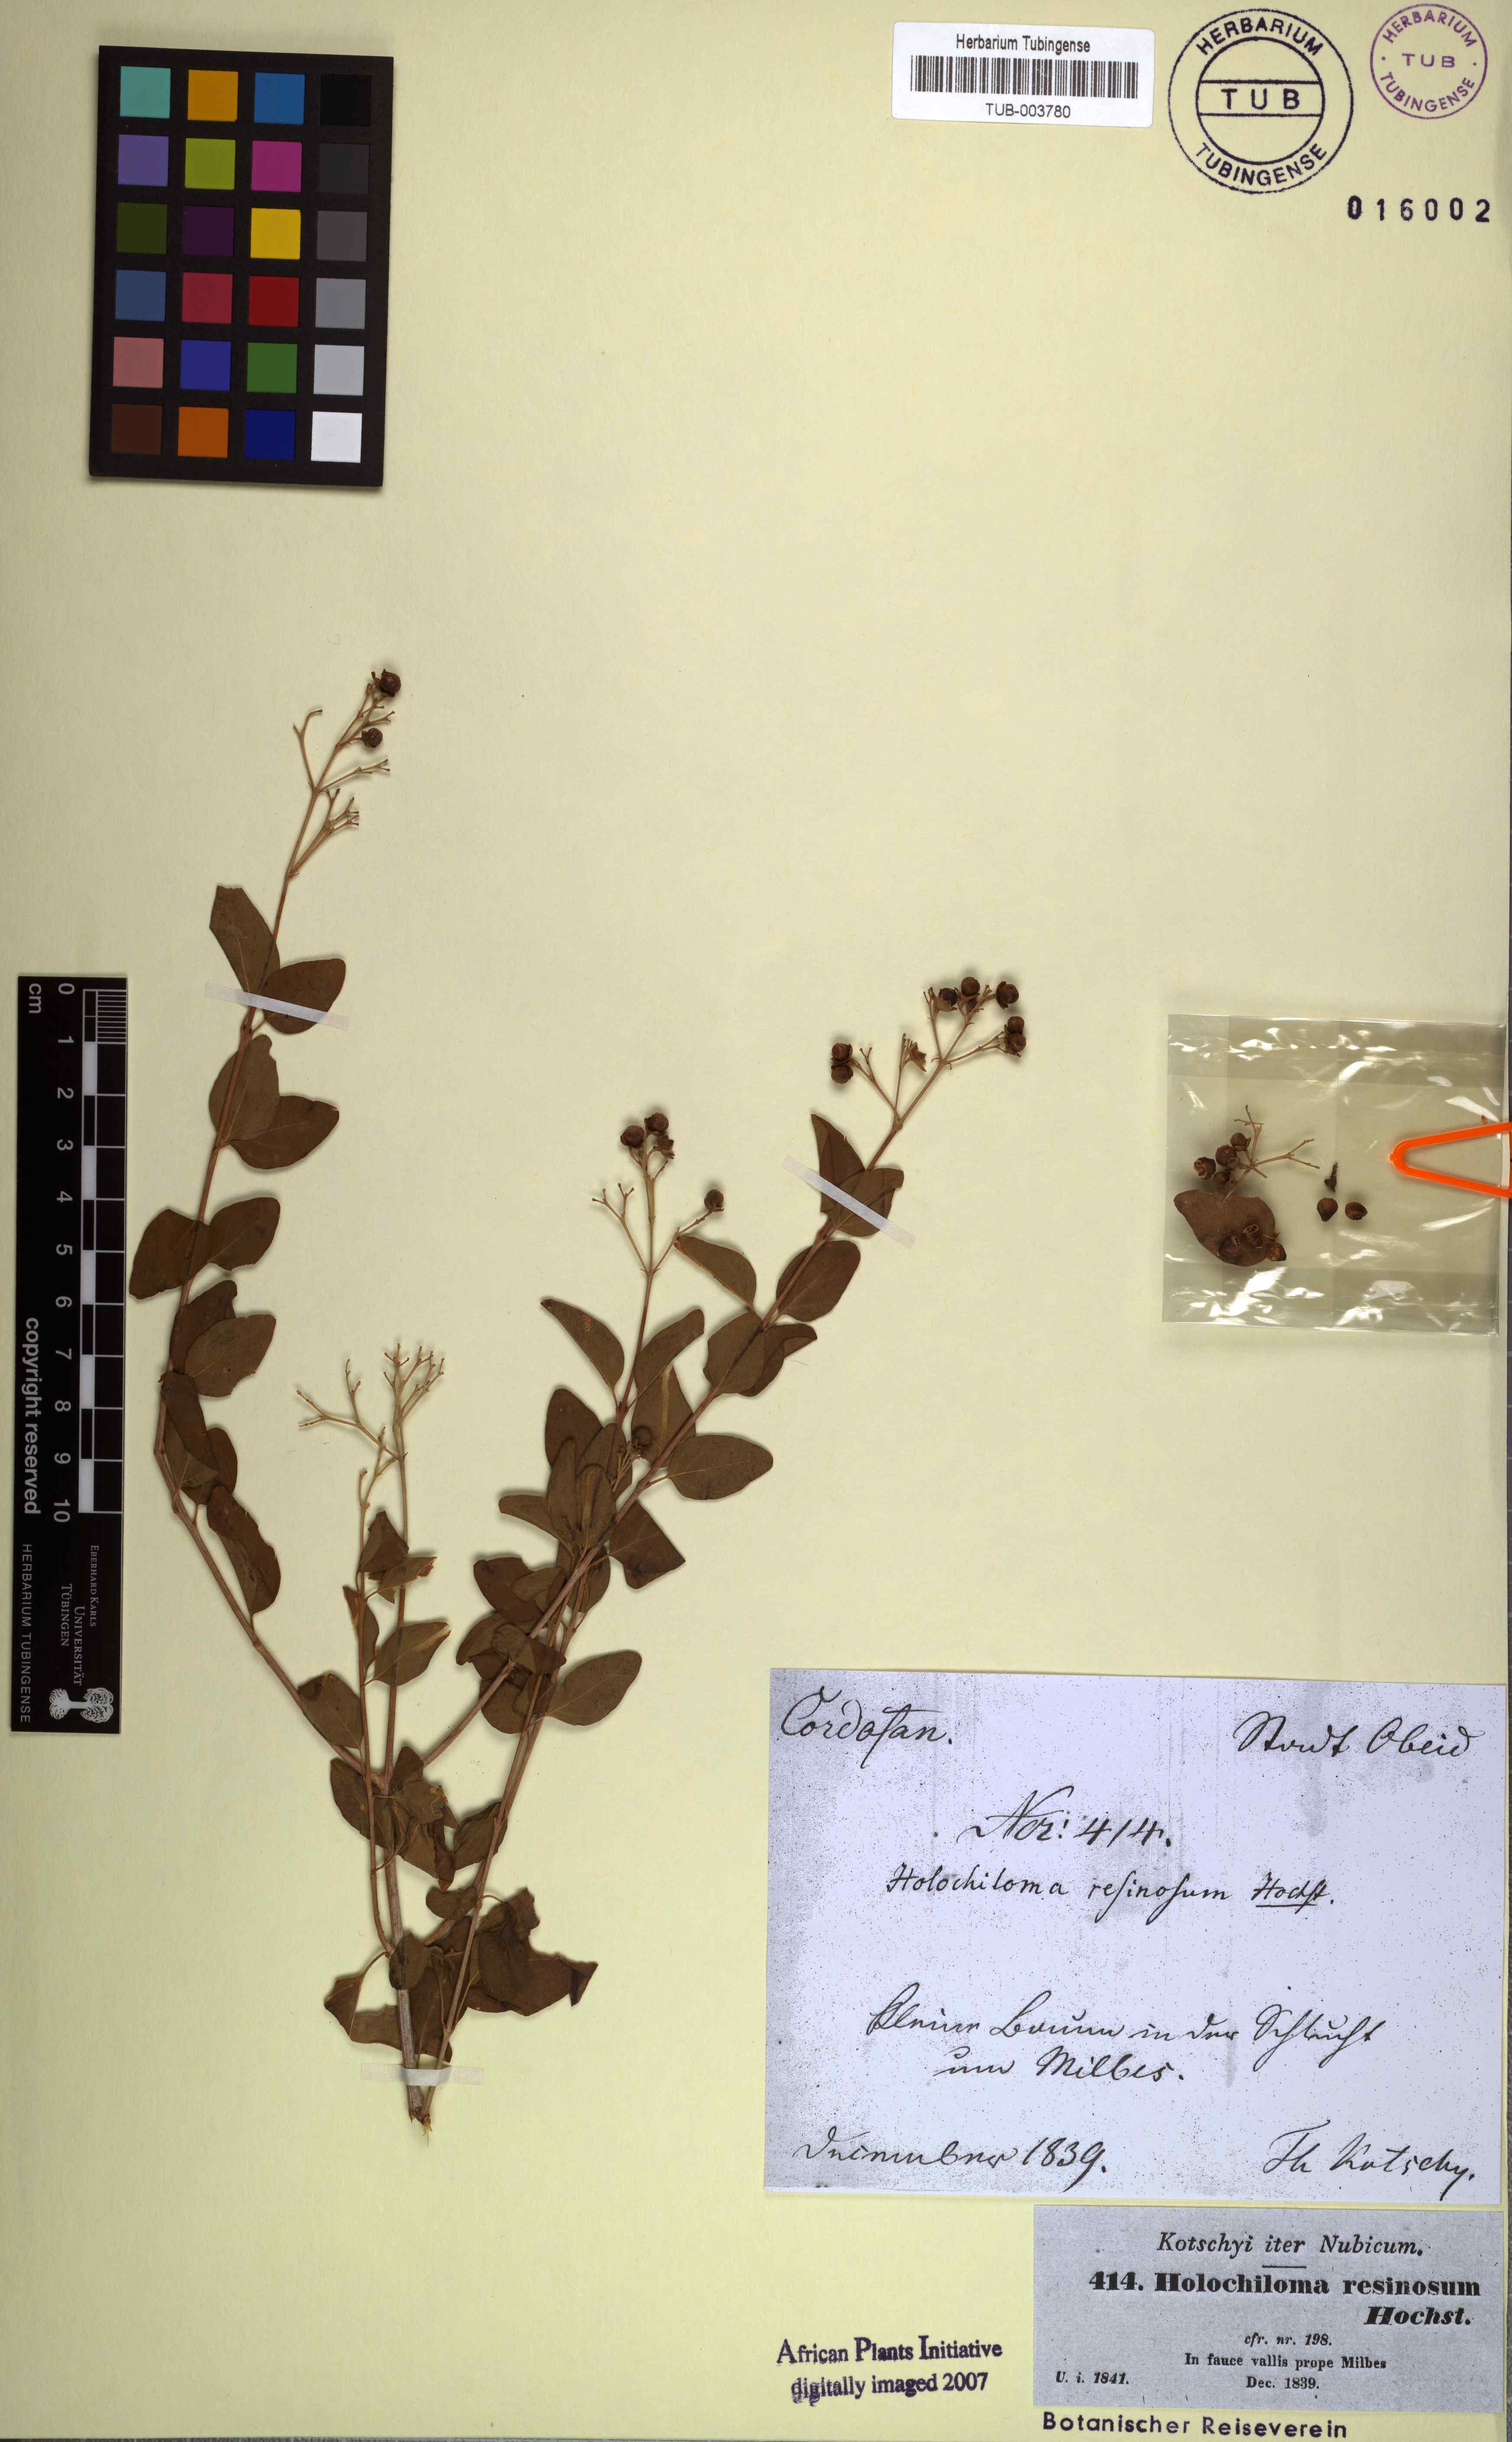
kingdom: Plantae
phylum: Tracheophyta
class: Magnoliopsida
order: Lamiales
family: Lamiaceae
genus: Premna
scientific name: Premna resinosa
